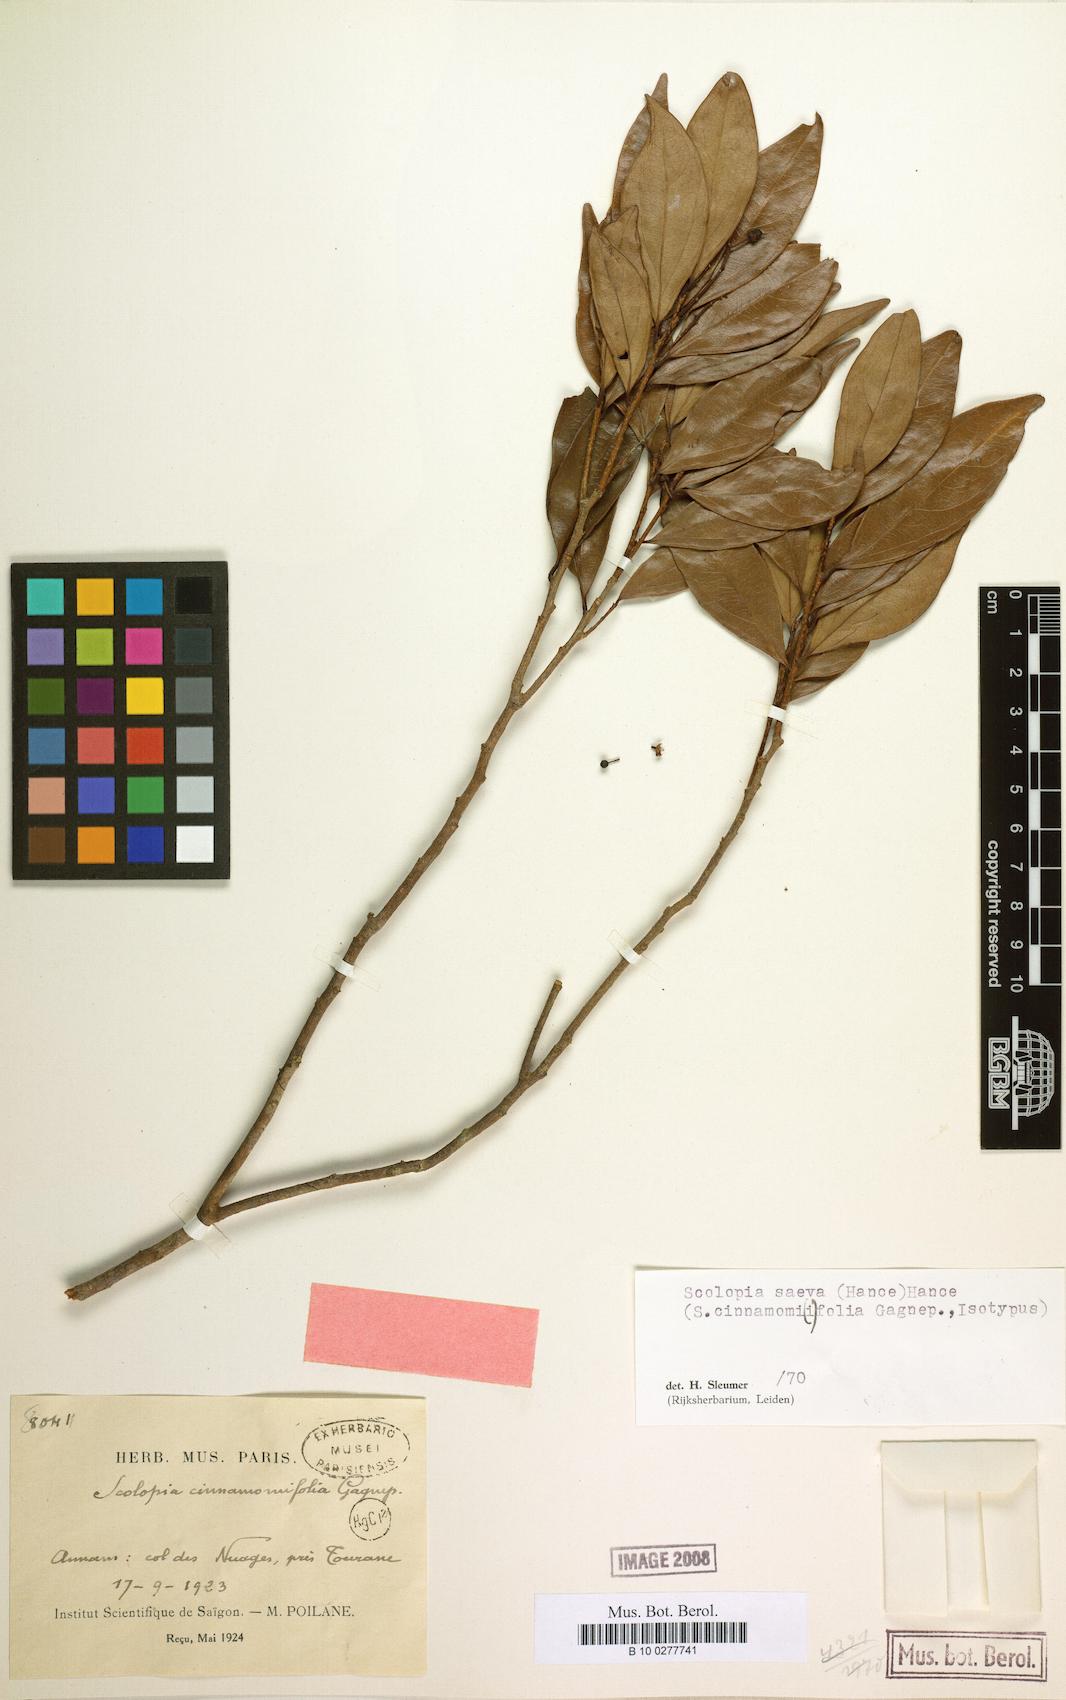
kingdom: Plantae
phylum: Tracheophyta
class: Magnoliopsida
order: Malpighiales
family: Salicaceae
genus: Scolopia
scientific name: Scolopia saeva
